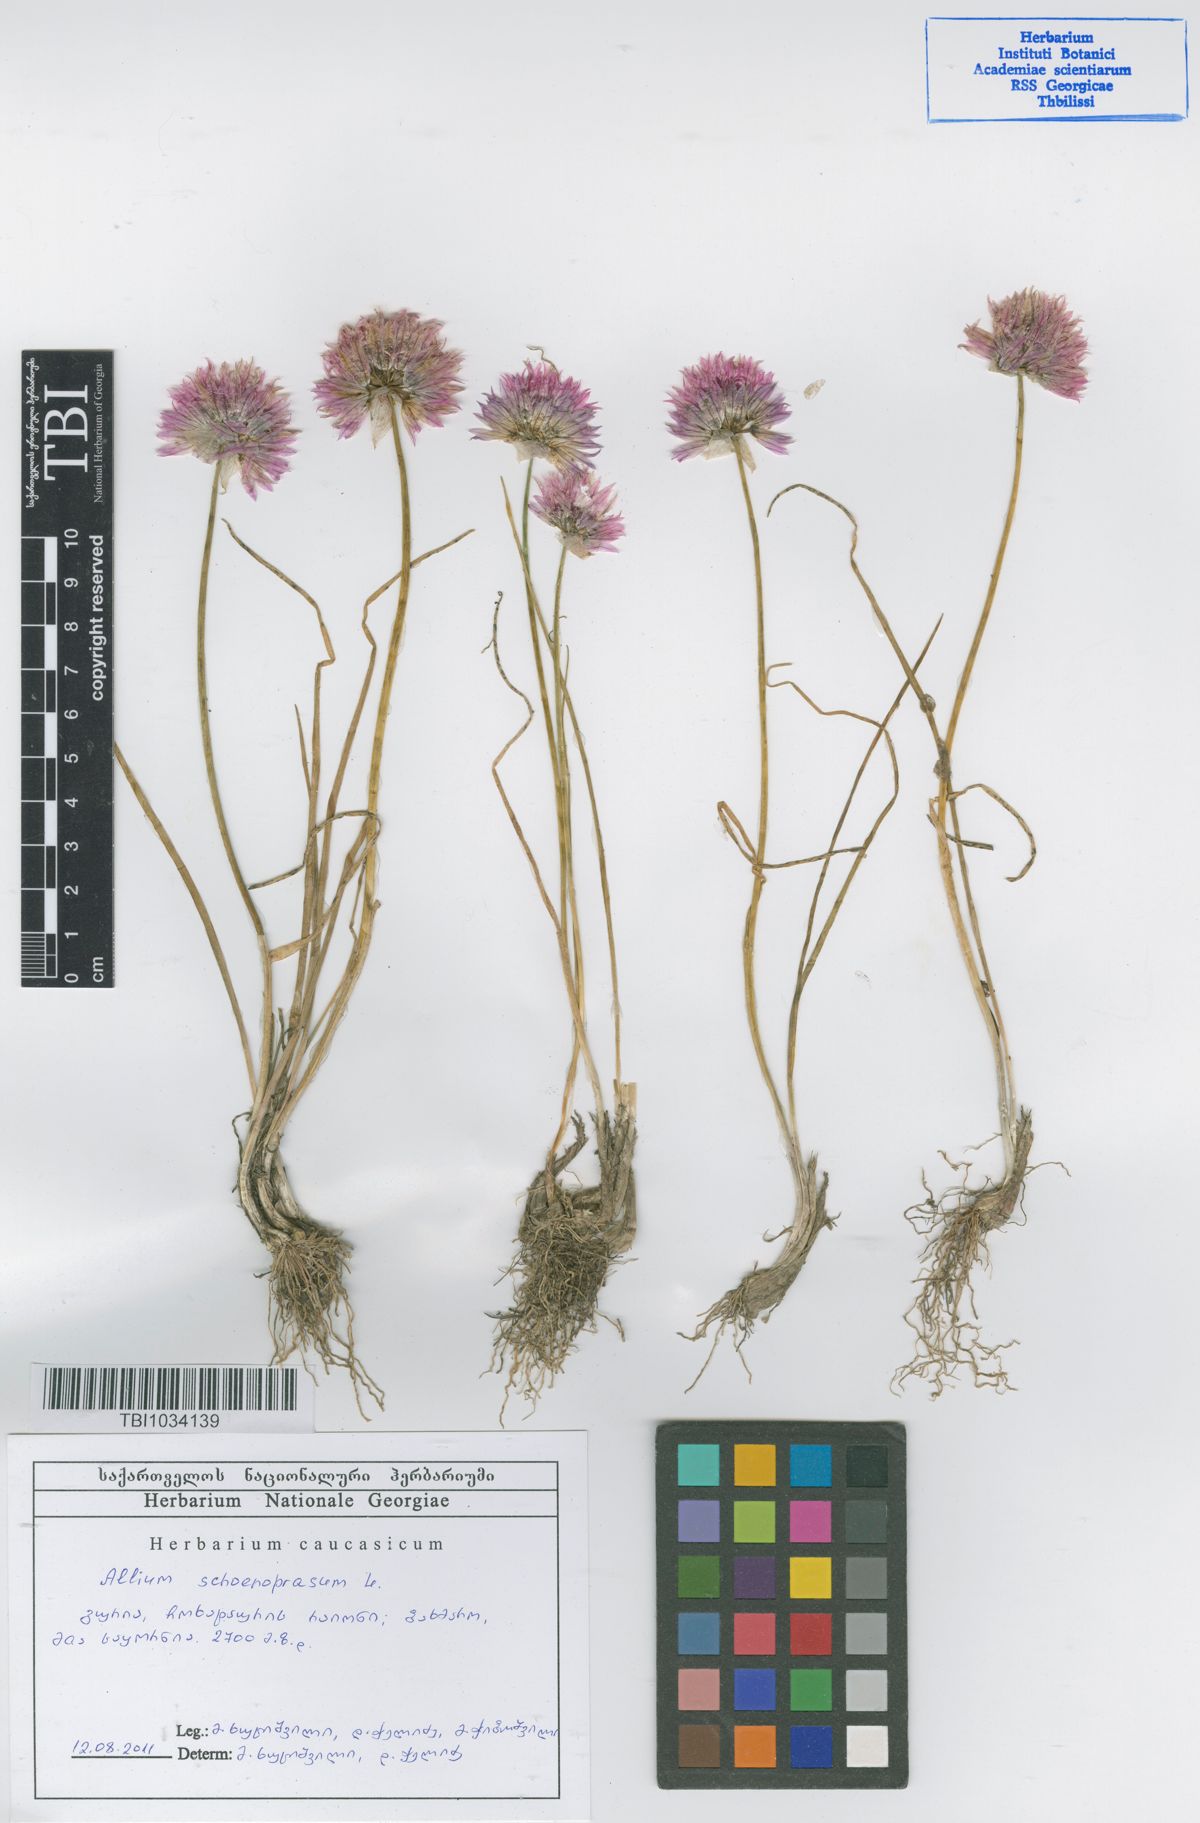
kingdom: Plantae
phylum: Tracheophyta
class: Liliopsida
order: Asparagales
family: Amaryllidaceae
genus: Allium
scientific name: Allium schoenoprasum
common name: Chives
